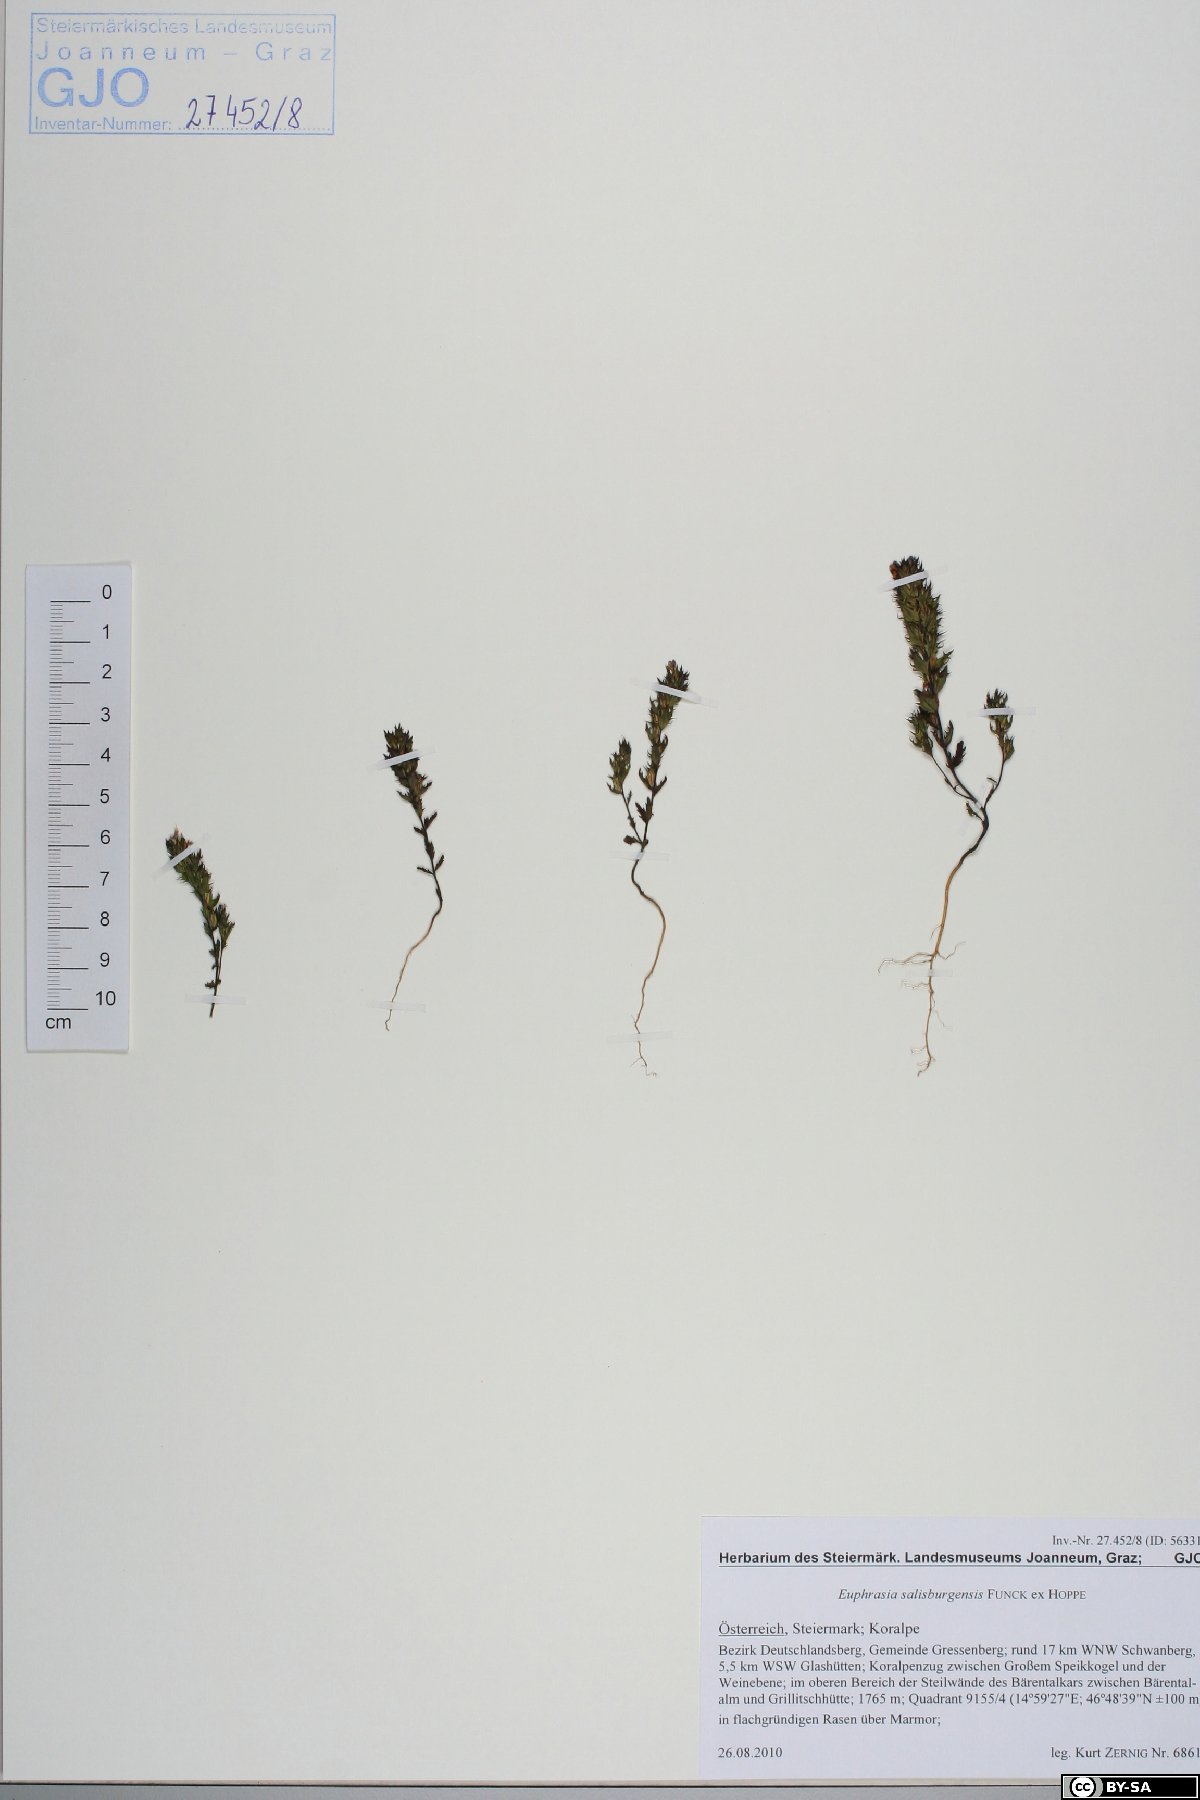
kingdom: Plantae
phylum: Tracheophyta
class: Magnoliopsida
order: Lamiales
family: Orobanchaceae
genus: Euphrasia
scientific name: Euphrasia salisburgensis
